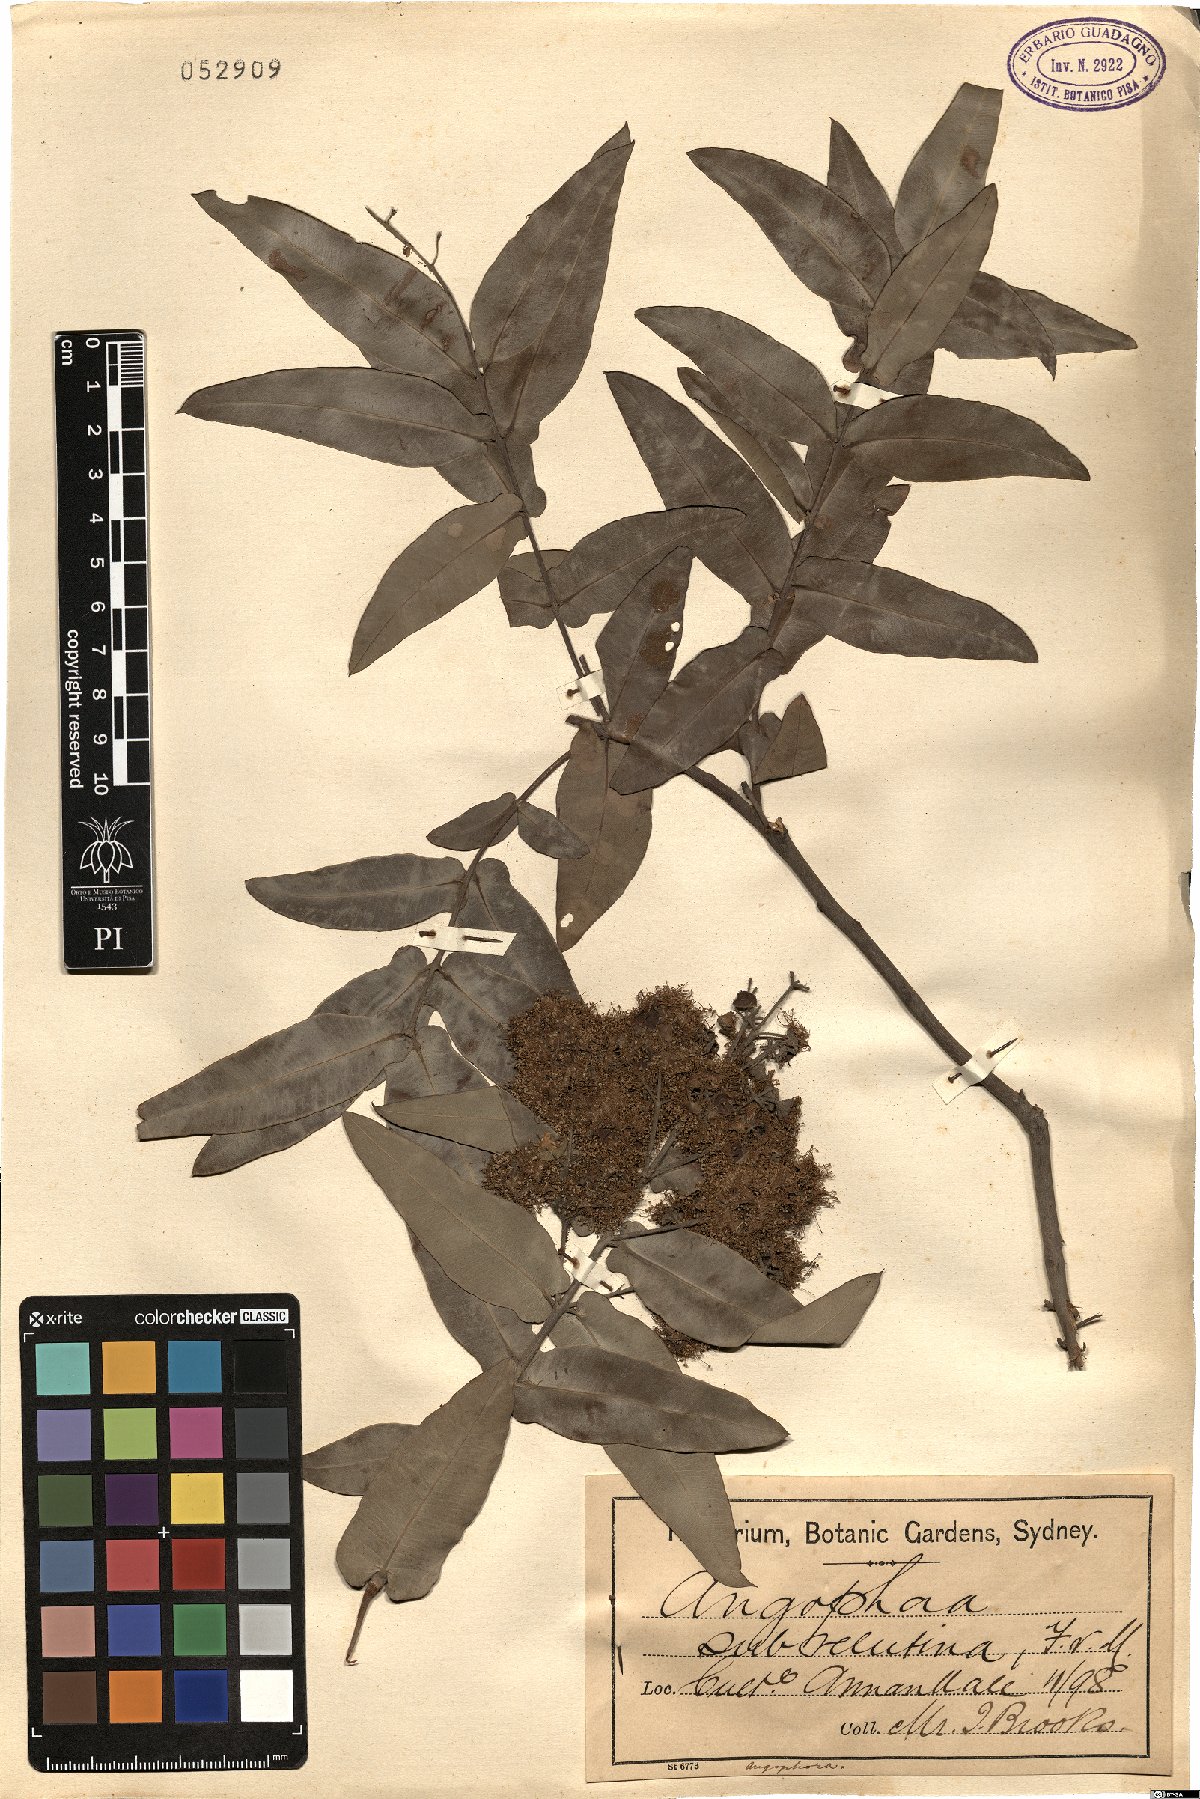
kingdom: Plantae
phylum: Tracheophyta
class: Magnoliopsida
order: Myrtales
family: Myrtaceae
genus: Angophora
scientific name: Angophora subvelutina
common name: Broad-leaved apple
